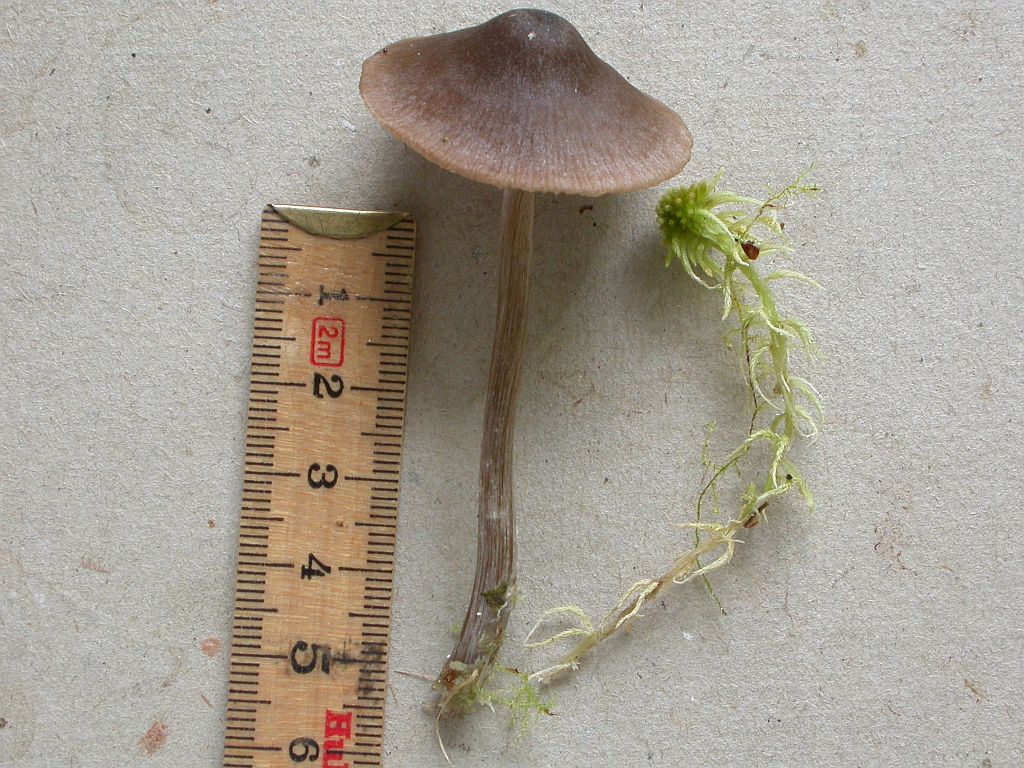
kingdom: Fungi
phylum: Basidiomycota
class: Agaricomycetes
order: Agaricales
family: Entolomataceae
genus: Entoloma
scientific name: Entoloma conferendum
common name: stjernesporet rødblad
